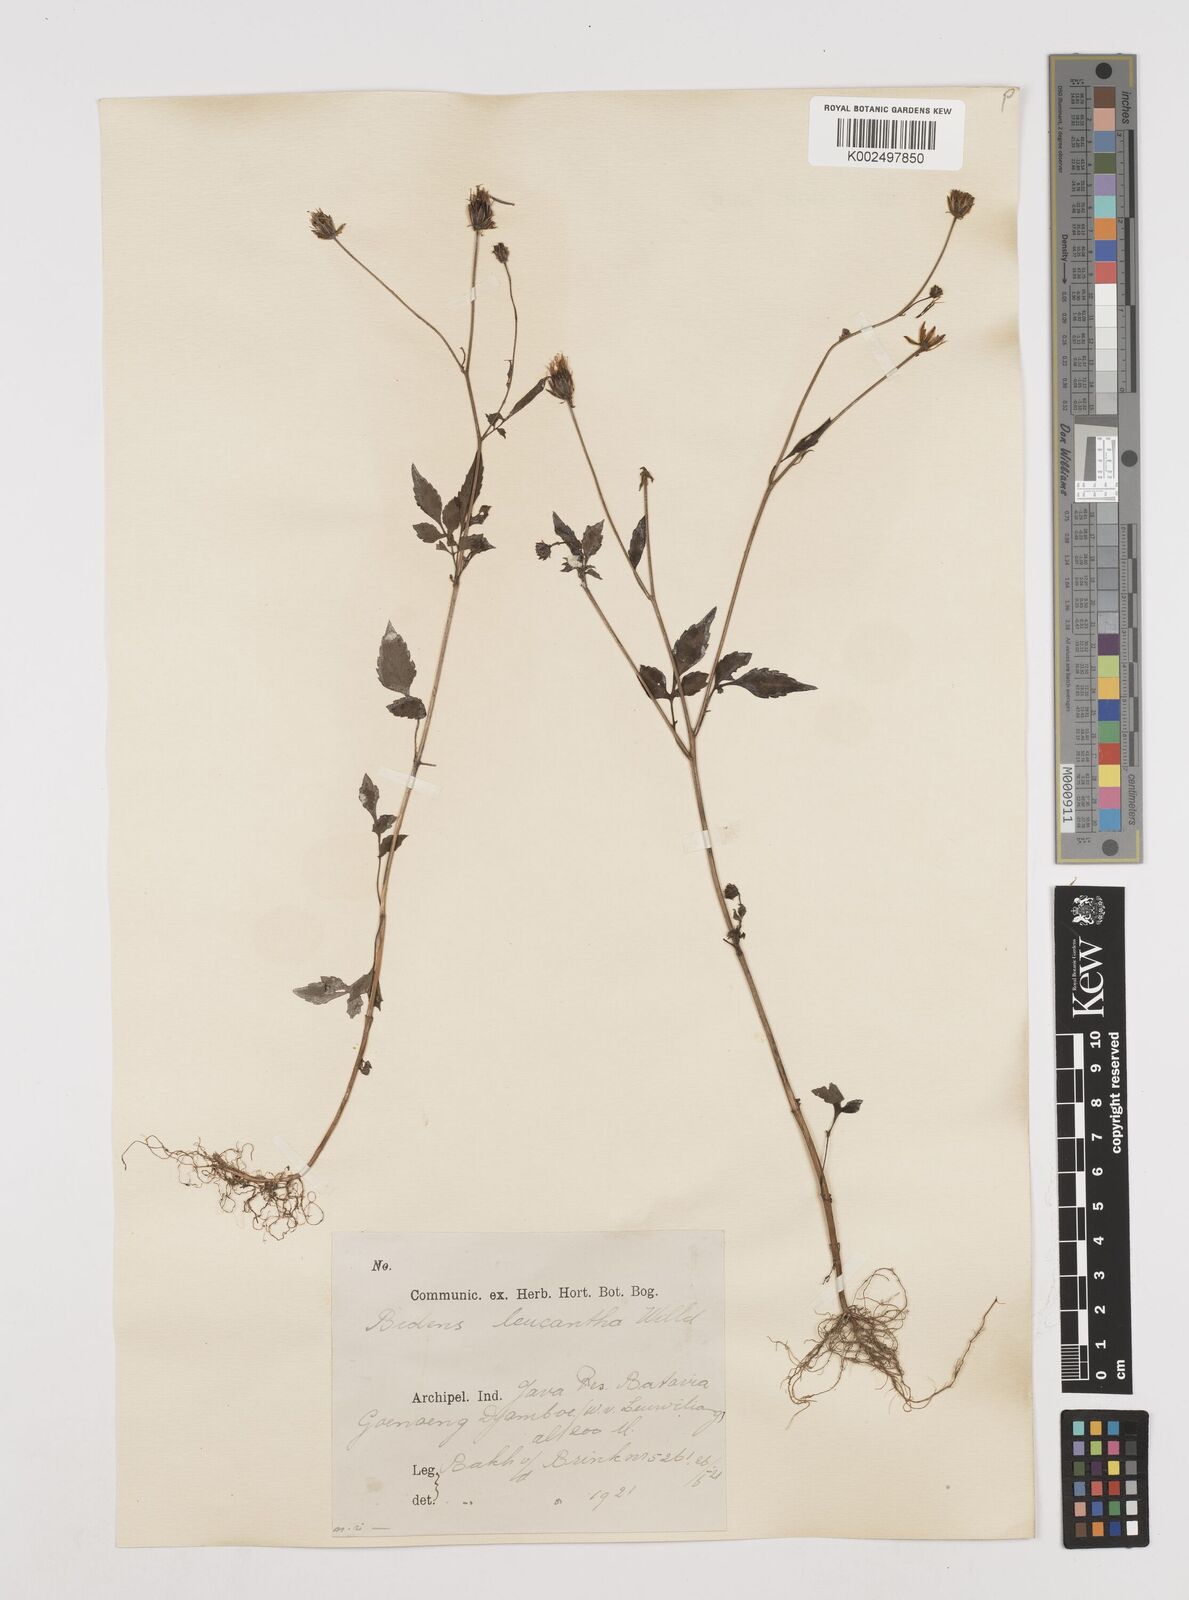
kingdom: Plantae
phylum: Tracheophyta
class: Magnoliopsida
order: Asterales
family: Asteraceae
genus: Bidens
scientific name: Bidens biternata
